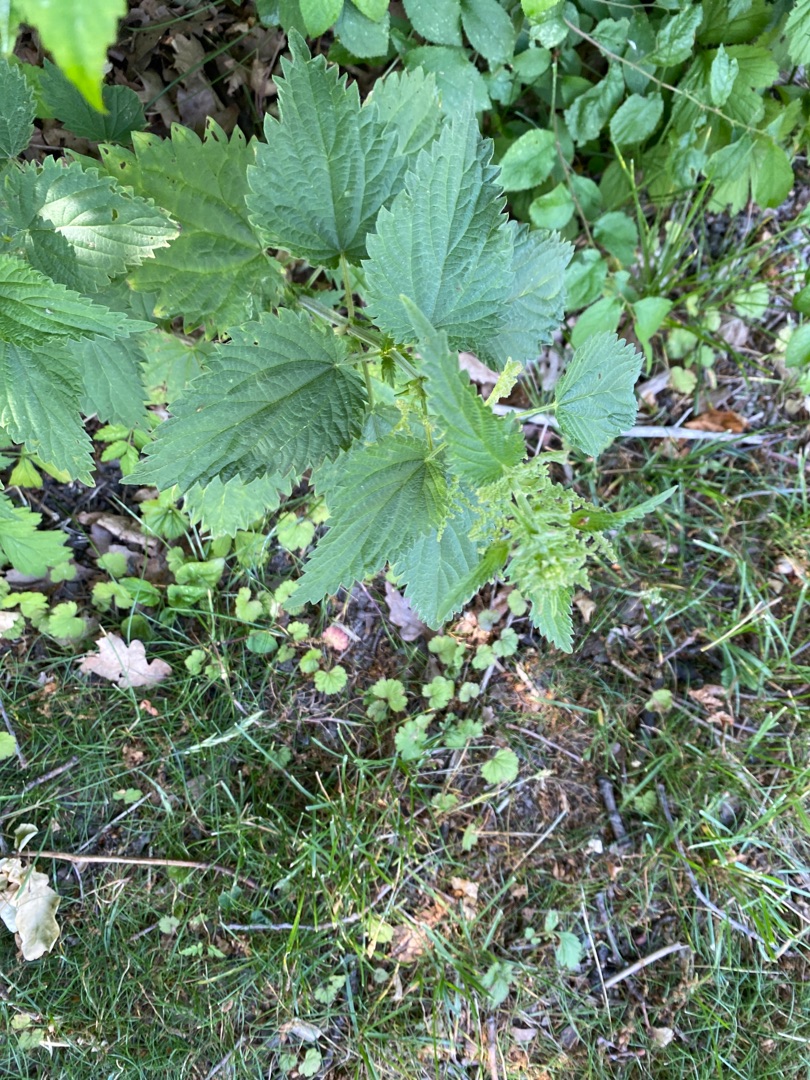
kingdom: Plantae
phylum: Tracheophyta
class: Magnoliopsida
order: Rosales
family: Urticaceae
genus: Urtica
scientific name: Urtica dioica
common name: Stor nælde
